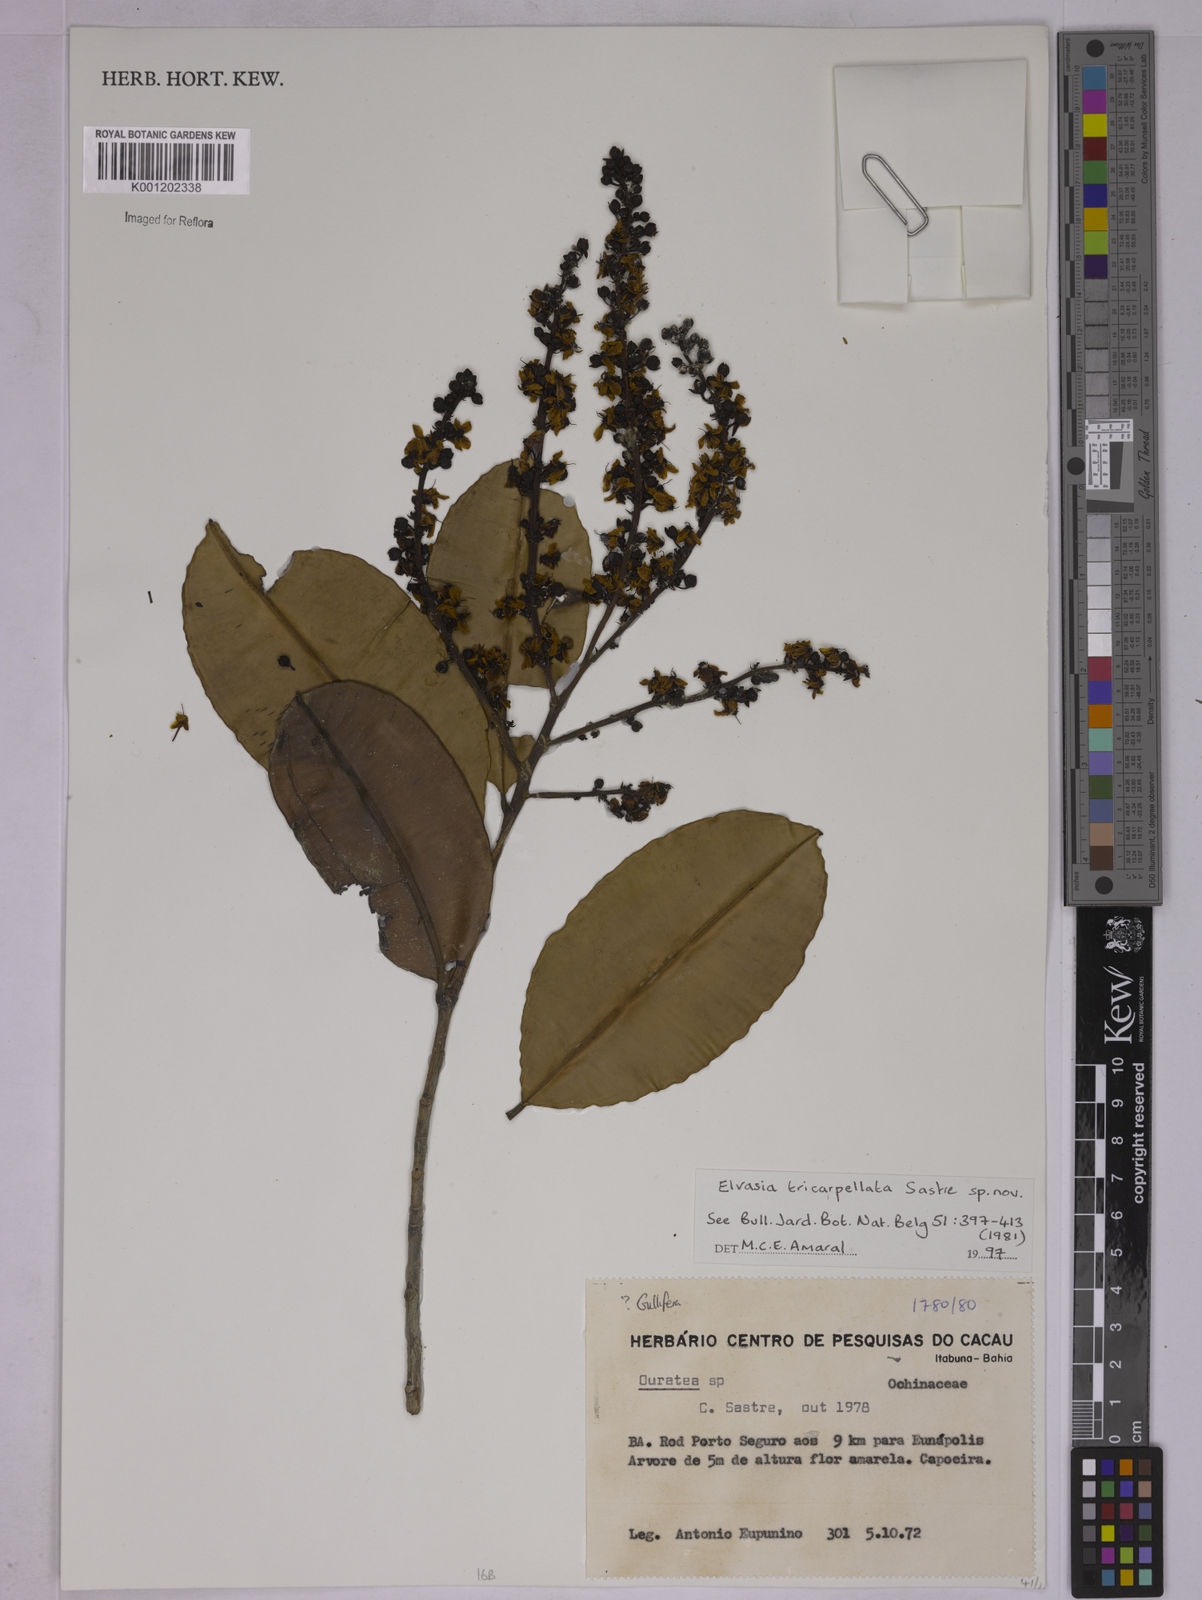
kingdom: Plantae
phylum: Tracheophyta
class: Magnoliopsida
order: Malpighiales
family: Ochnaceae
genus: Elvasia
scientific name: Elvasia tricarpellata
